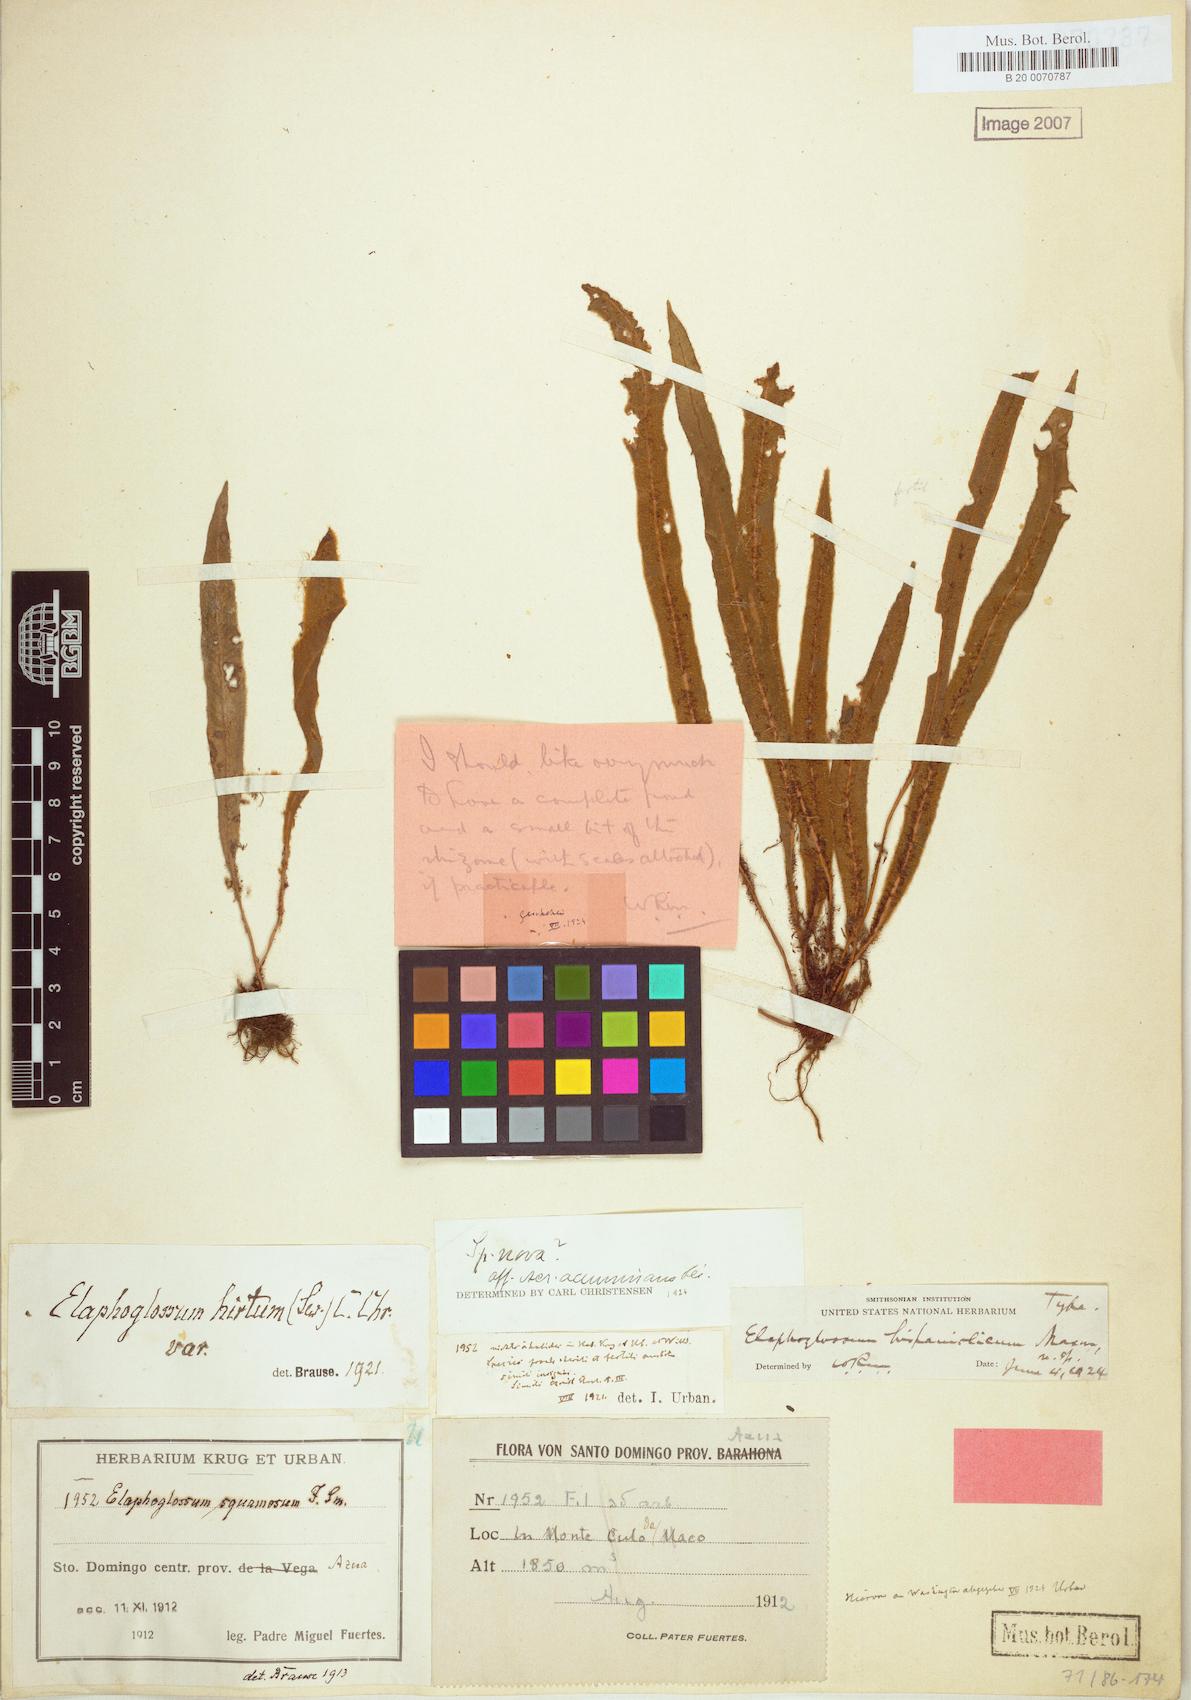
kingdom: Plantae
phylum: Tracheophyta
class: Polypodiopsida
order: Polypodiales
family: Dryopteridaceae
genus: Elaphoglossum
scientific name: Elaphoglossum hispaniolicum
